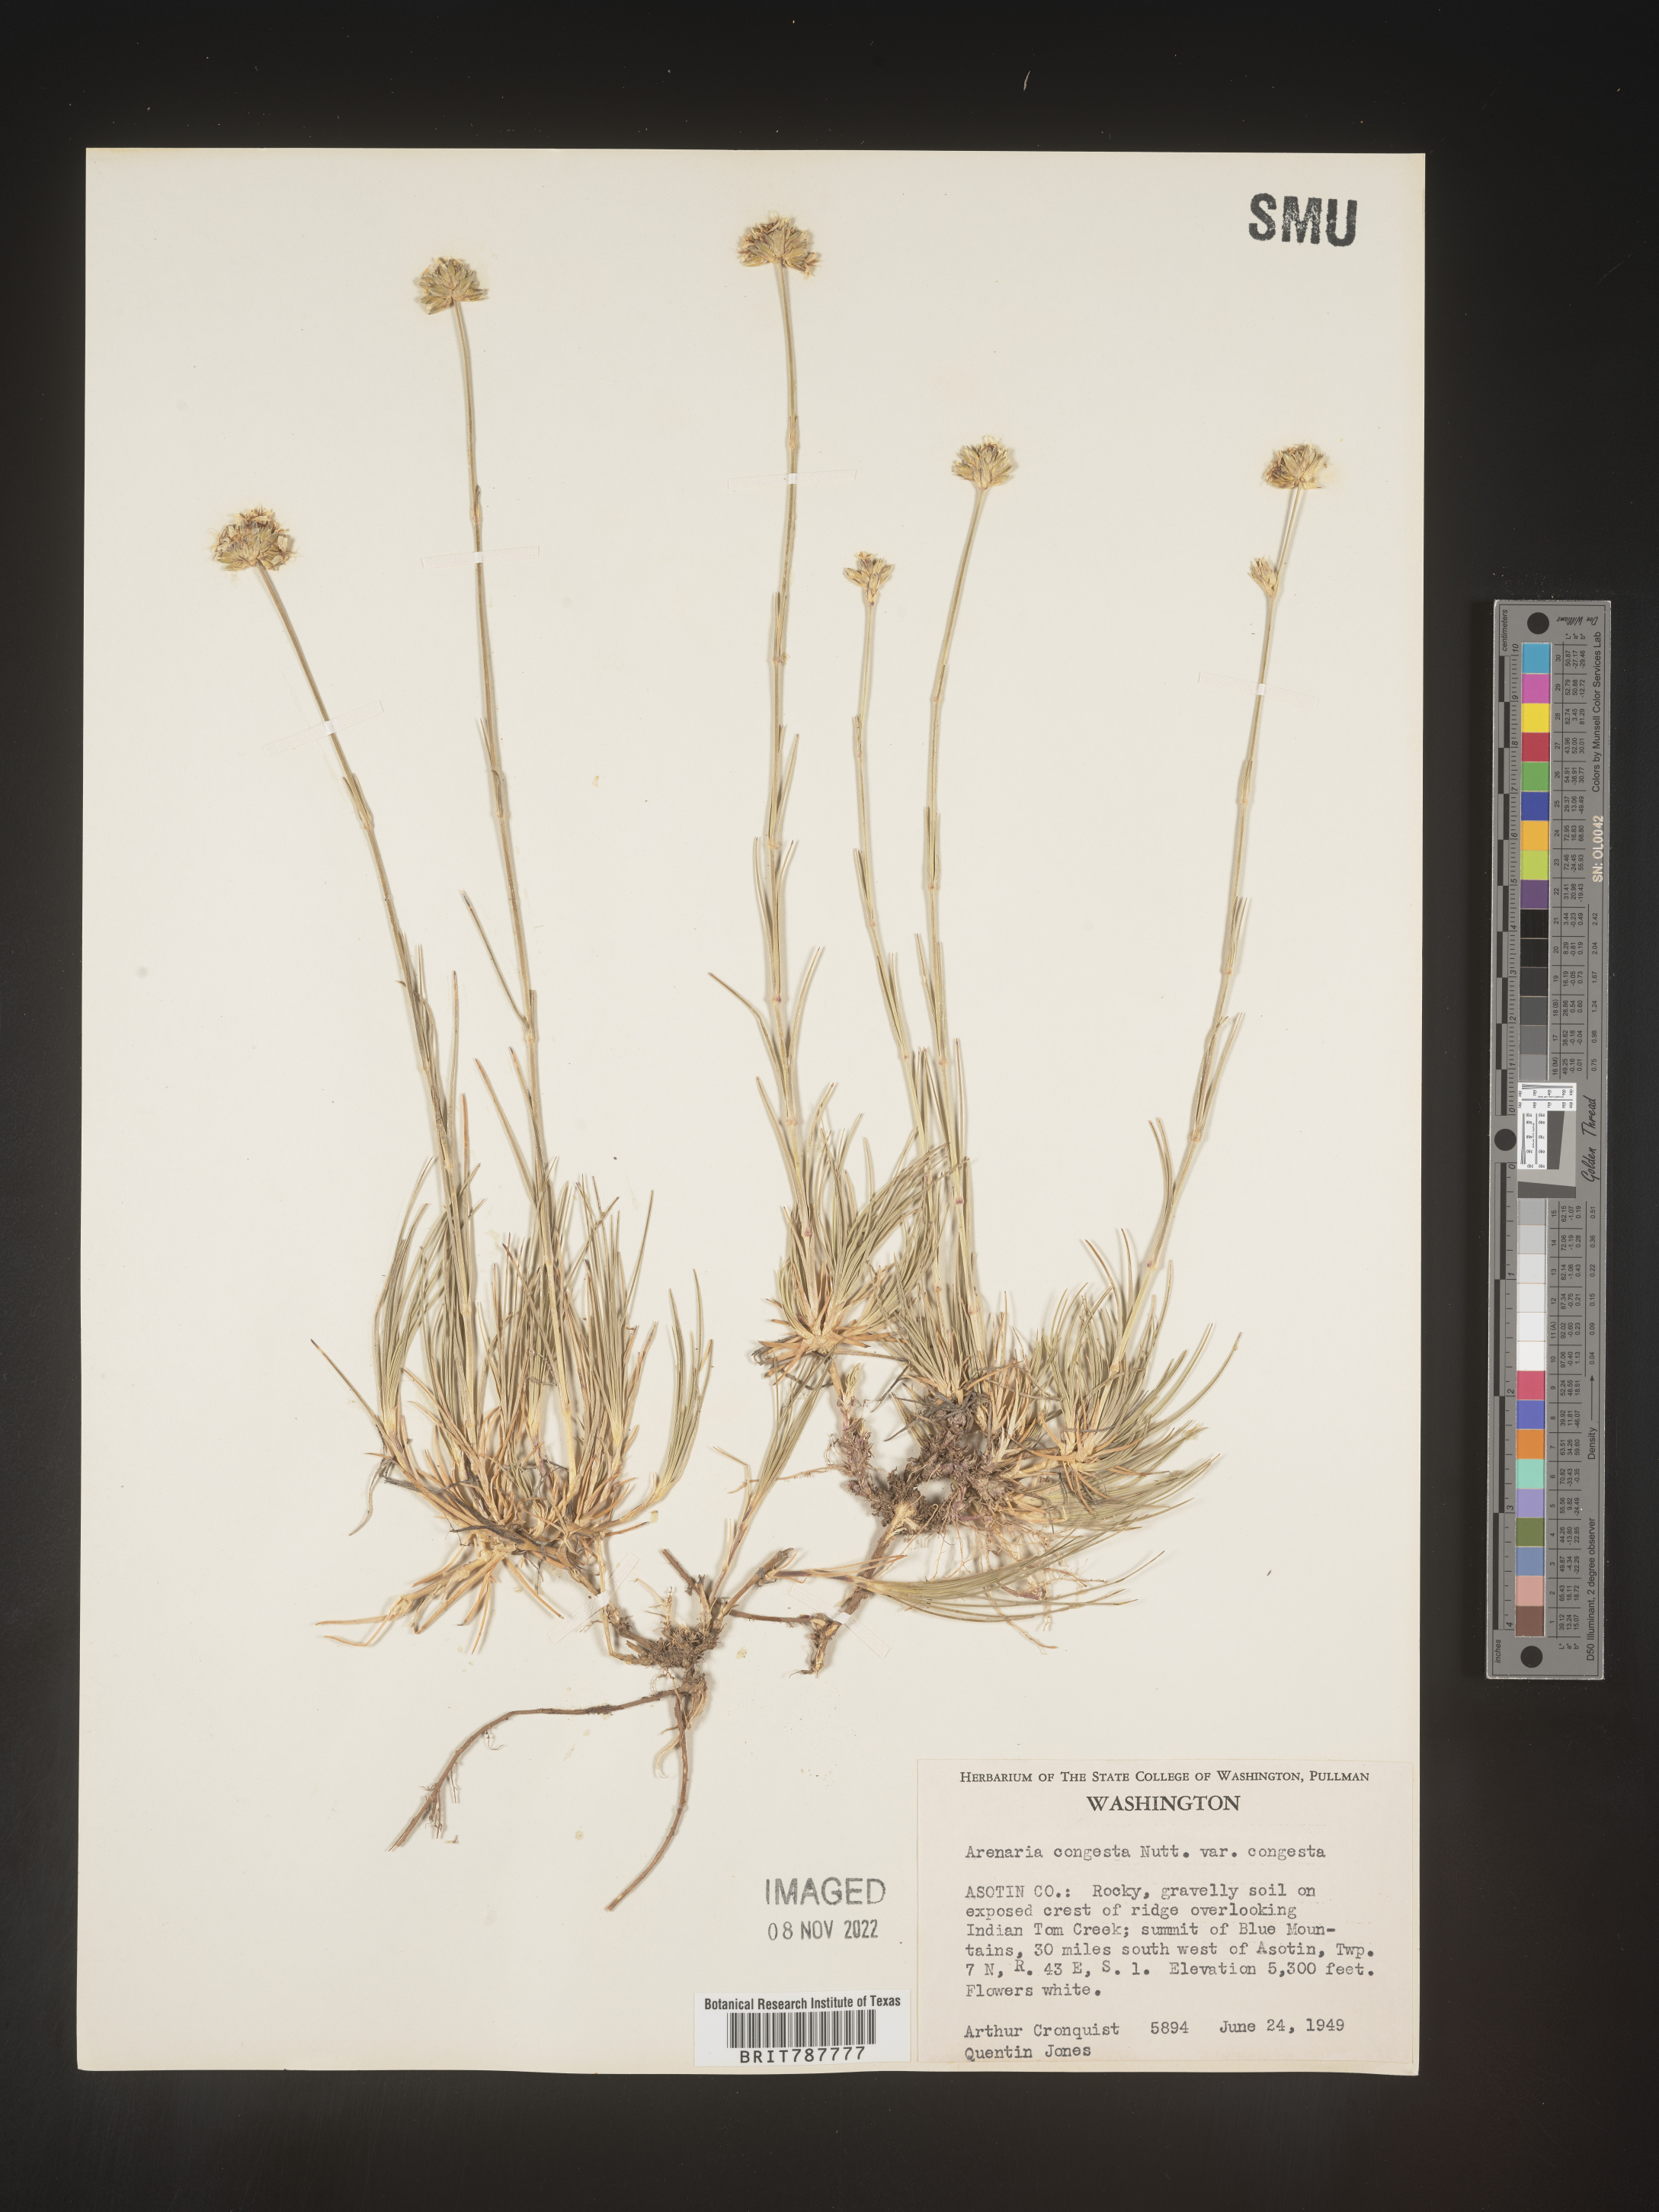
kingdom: Plantae
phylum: Tracheophyta
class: Magnoliopsida
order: Caryophyllales
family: Caryophyllaceae
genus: Eremogone
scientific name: Eremogone congesta
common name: Ballhead sandwort
